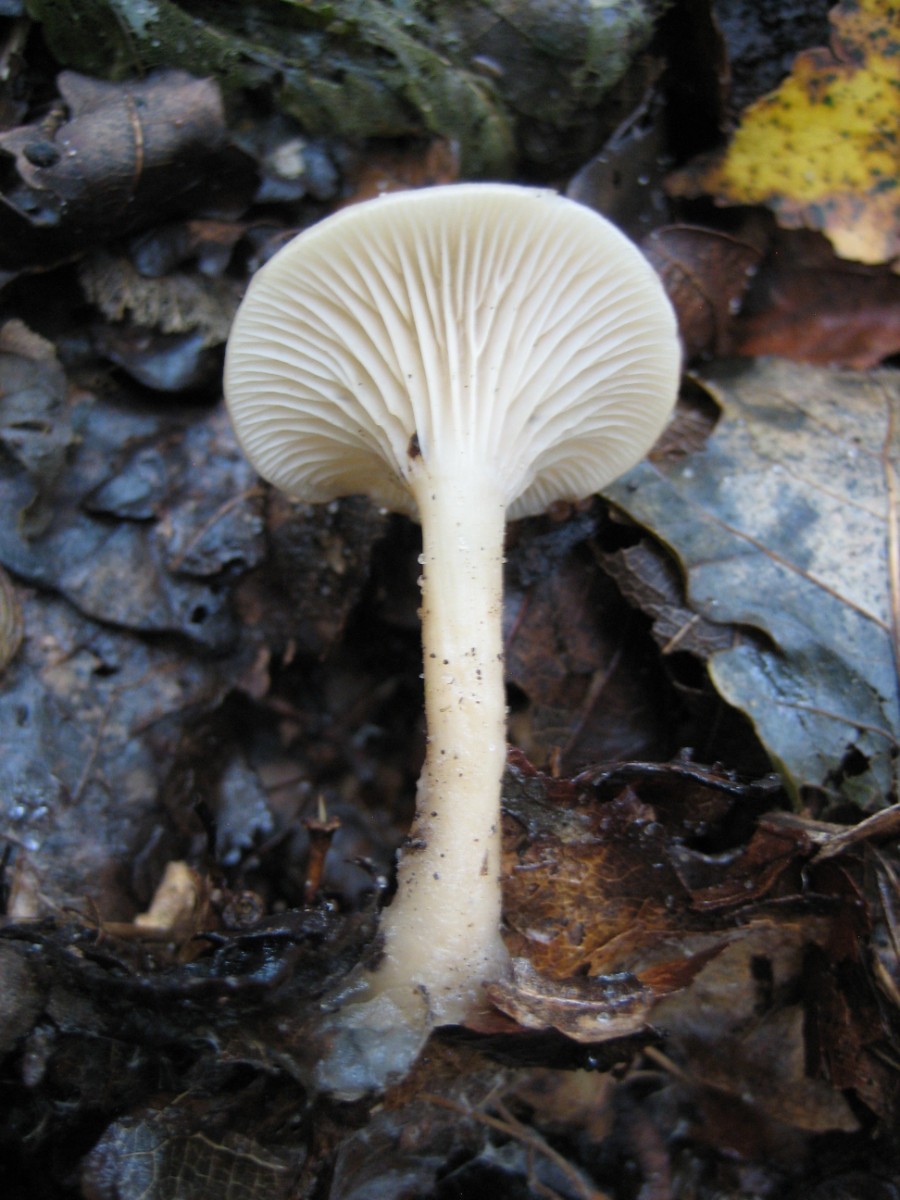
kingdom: Fungi
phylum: Basidiomycota
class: Agaricomycetes
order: Agaricales
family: Tricholomataceae
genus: Clitocybe
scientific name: Clitocybe
